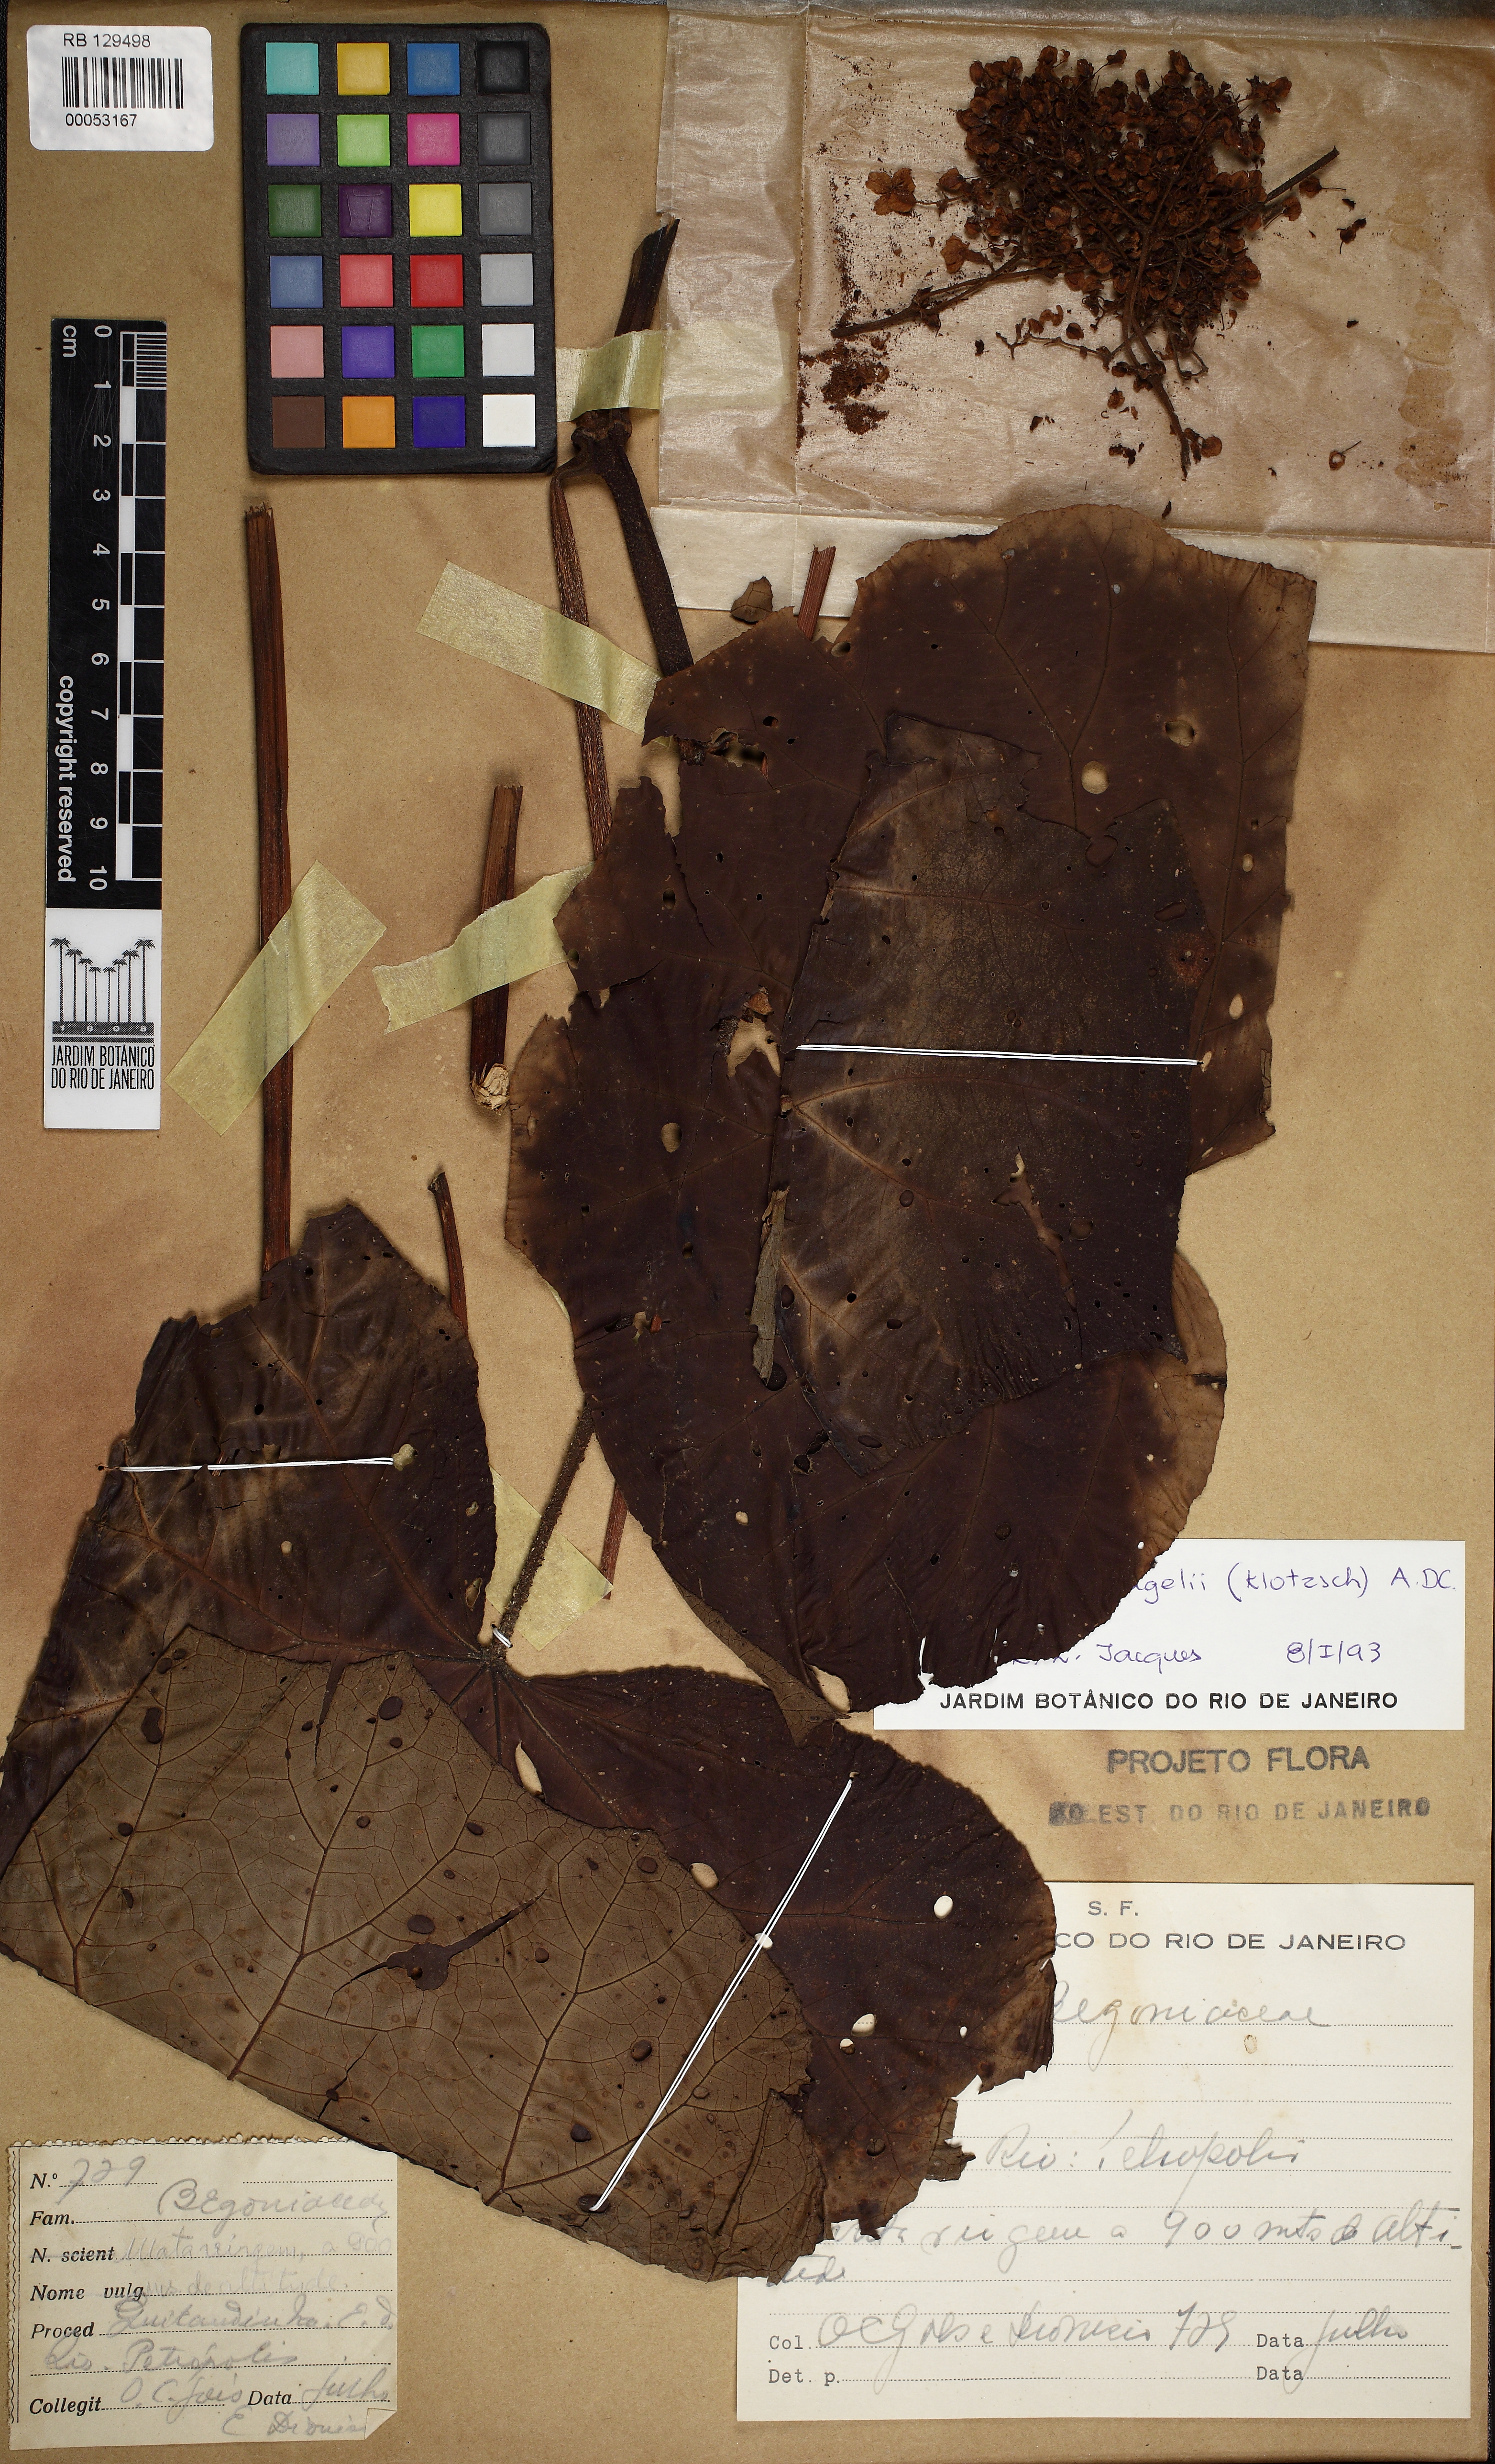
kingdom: Plantae
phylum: Tracheophyta
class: Magnoliopsida
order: Cucurbitales
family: Begoniaceae
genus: Begonia
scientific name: Begonia huegelii
